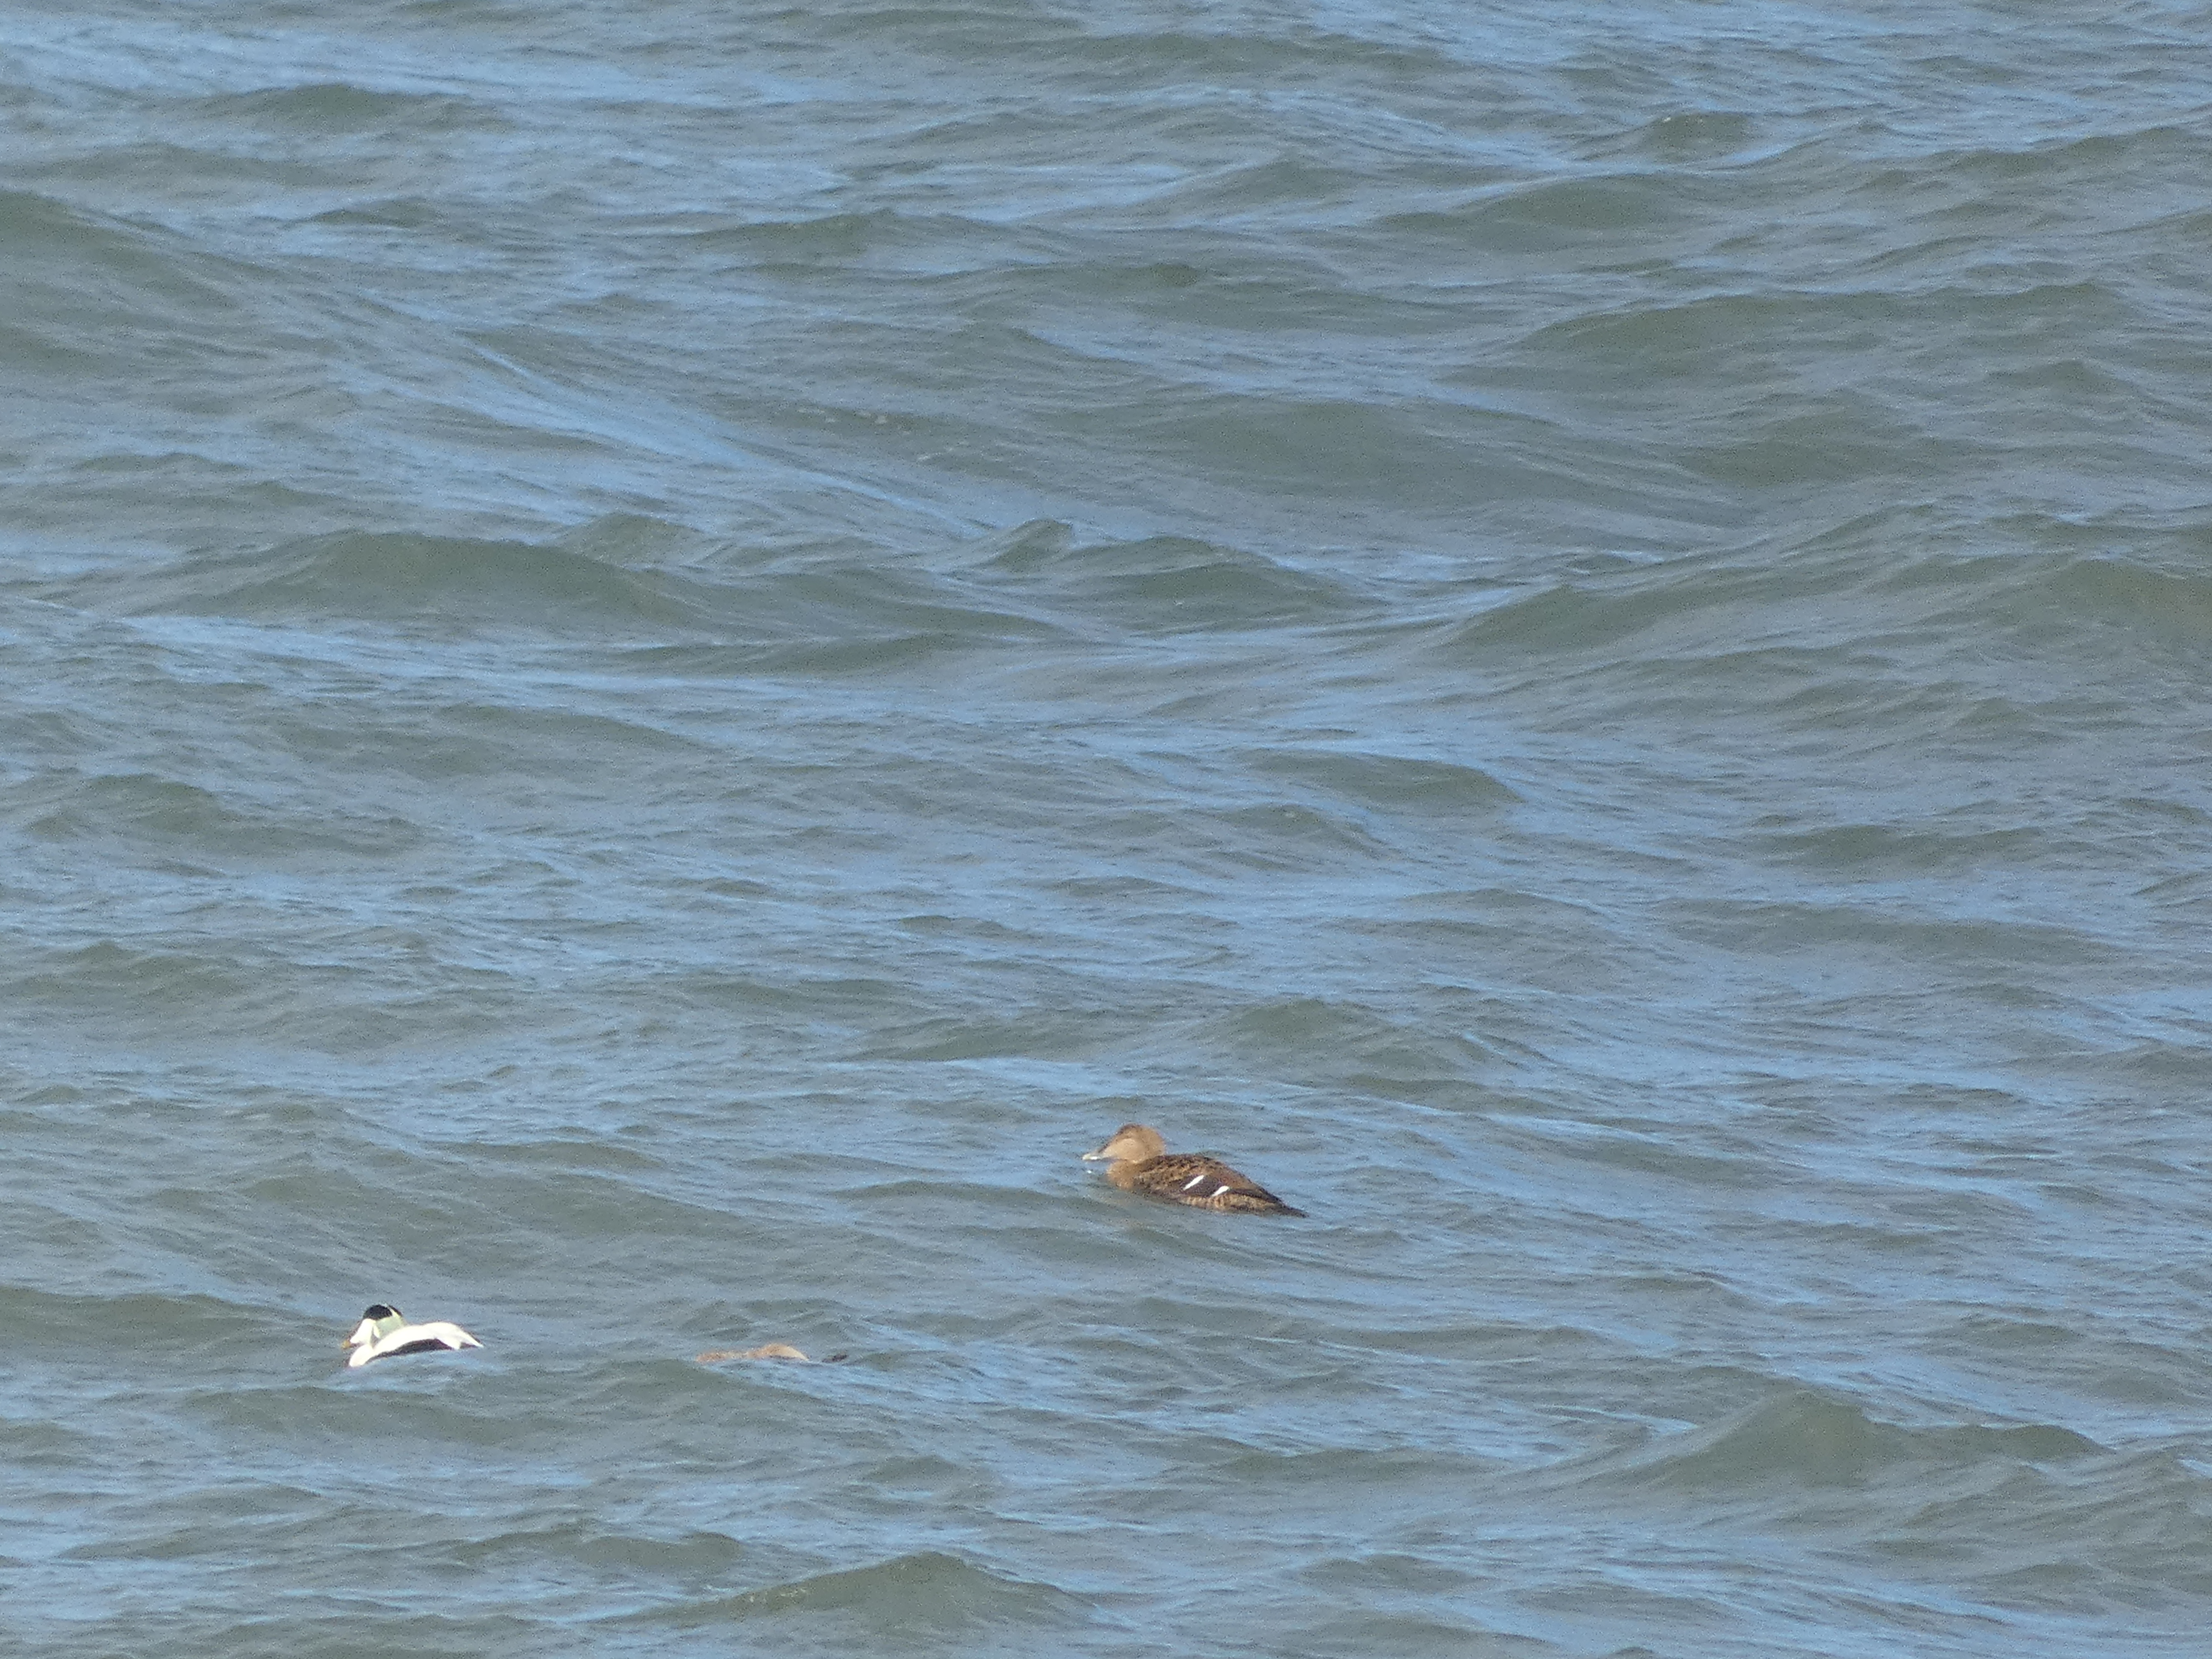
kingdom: Animalia
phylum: Chordata
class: Aves
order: Anseriformes
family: Anatidae
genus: Somateria
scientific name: Somateria mollissima
